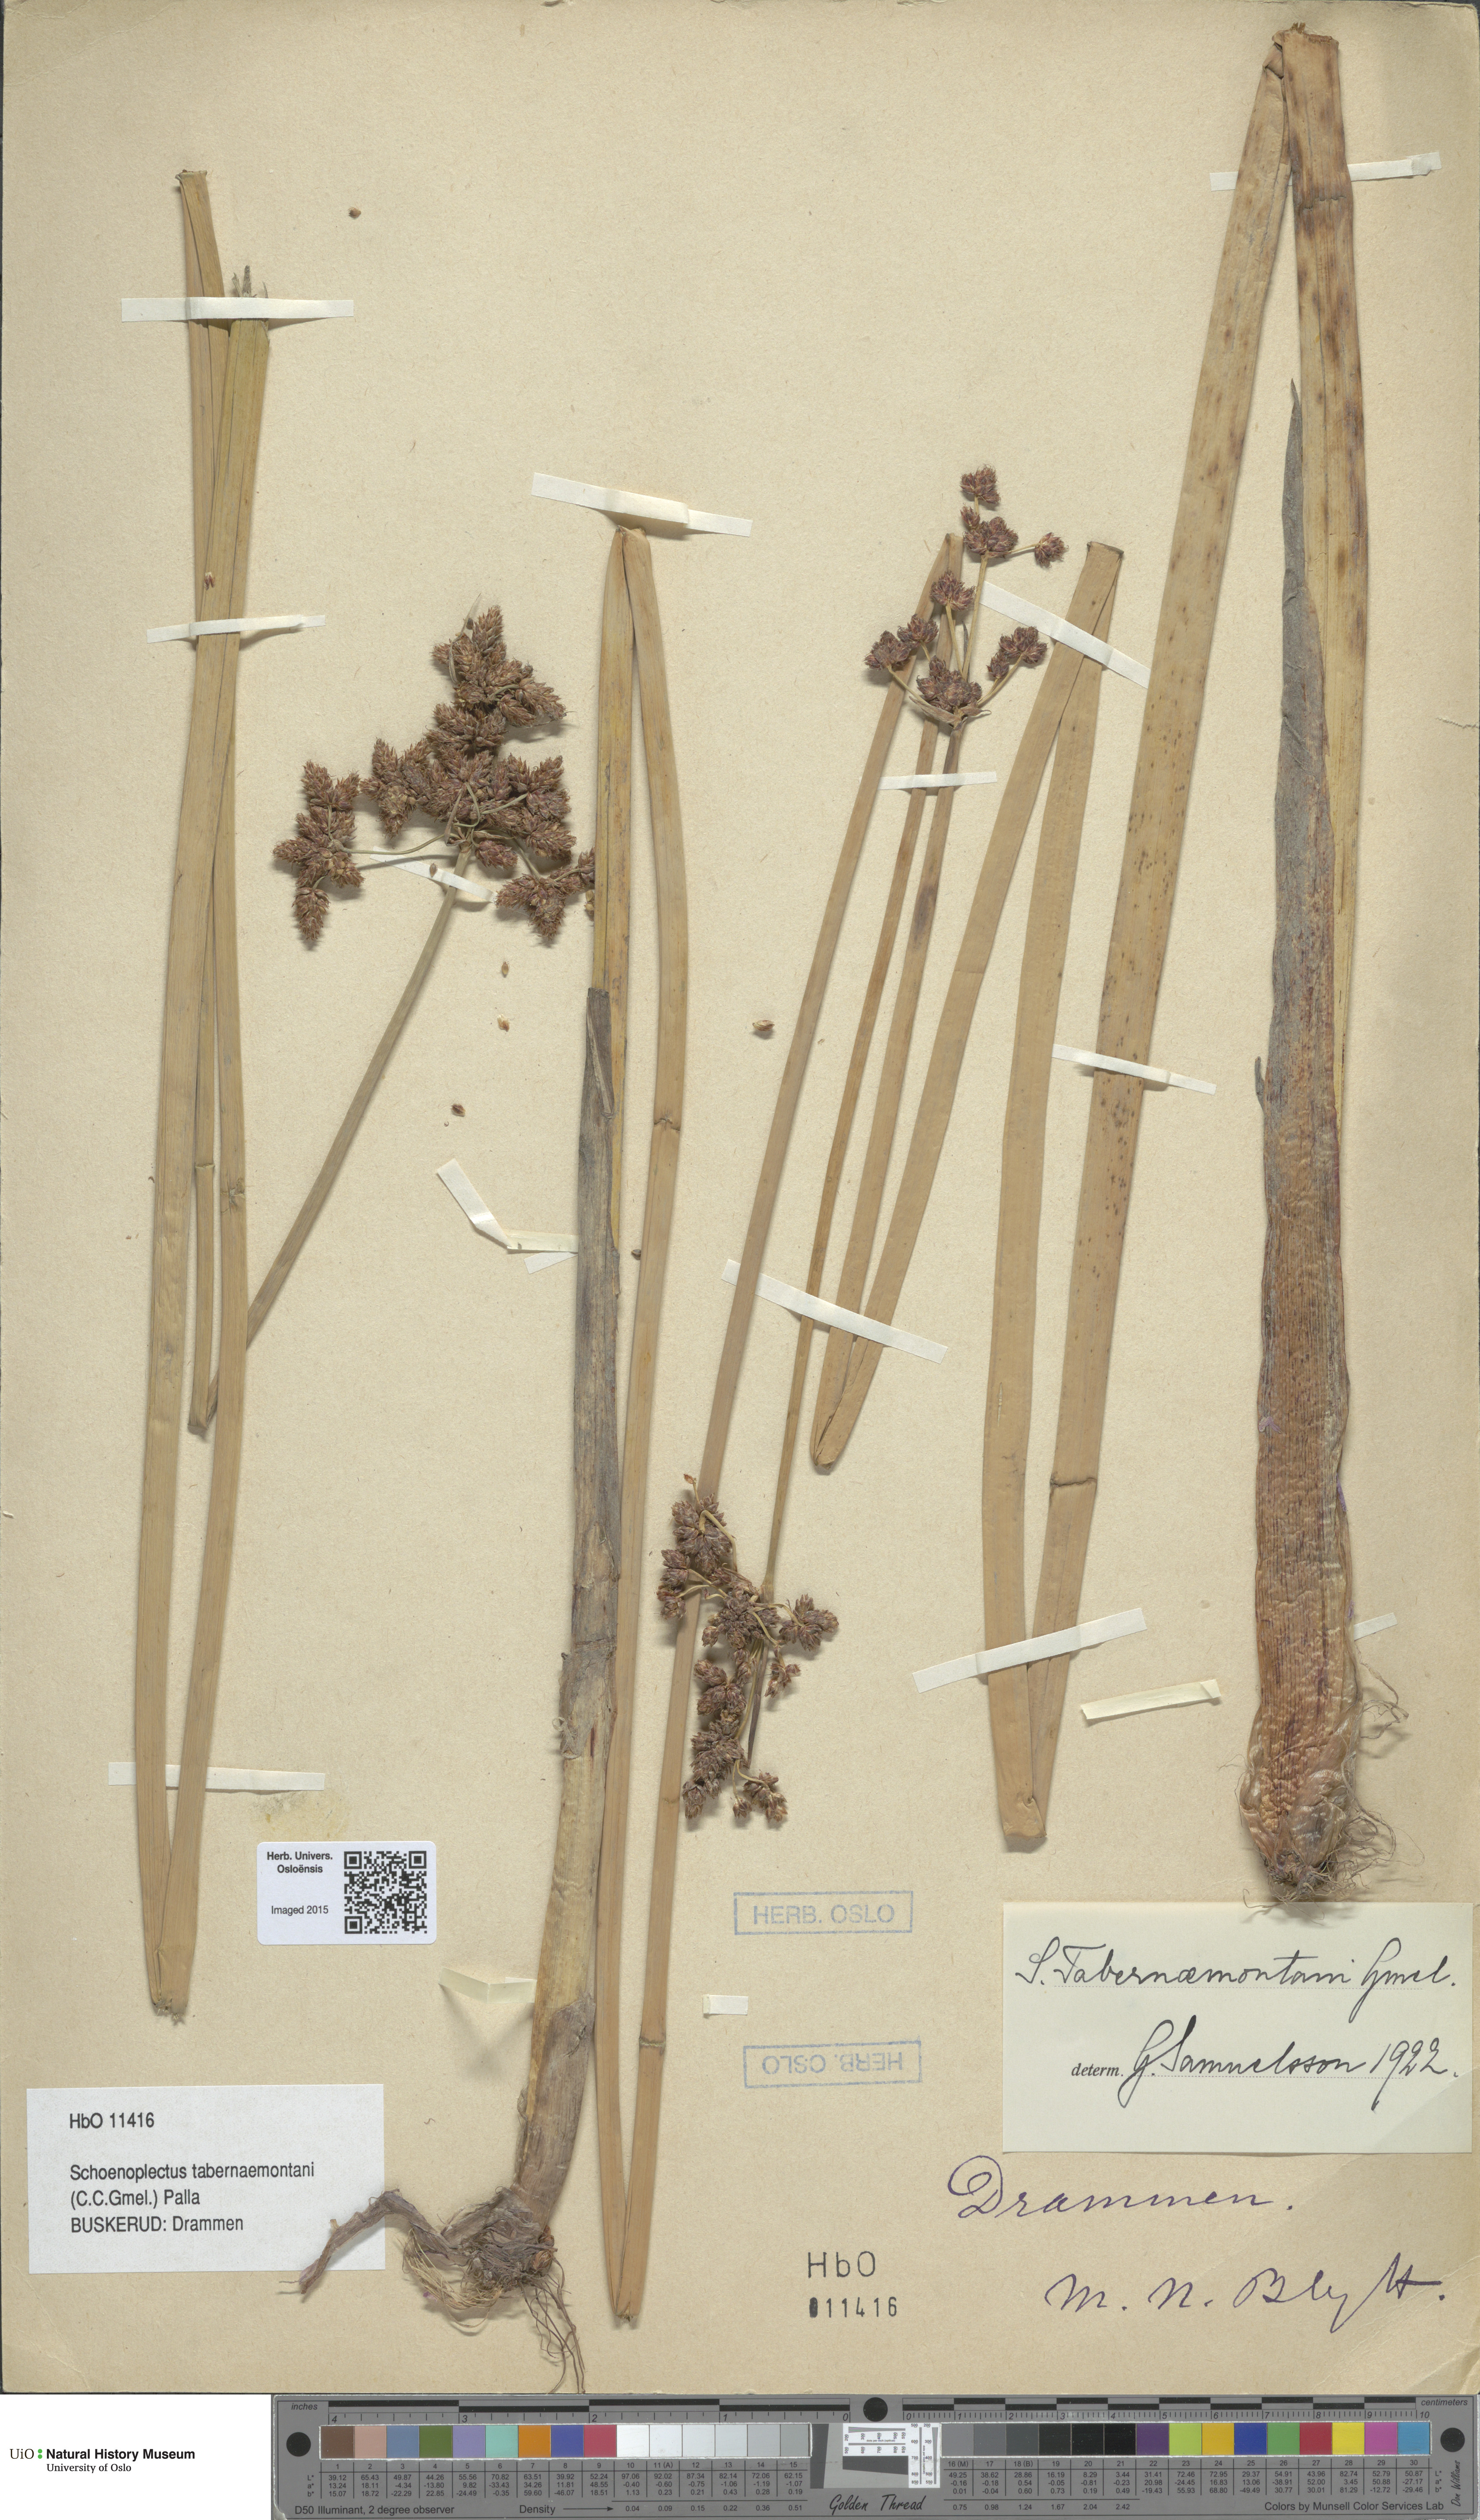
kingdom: Plantae
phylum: Tracheophyta
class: Liliopsida
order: Poales
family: Cyperaceae
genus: Schoenoplectus
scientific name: Schoenoplectus tabernaemontani
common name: Grey club-rush
